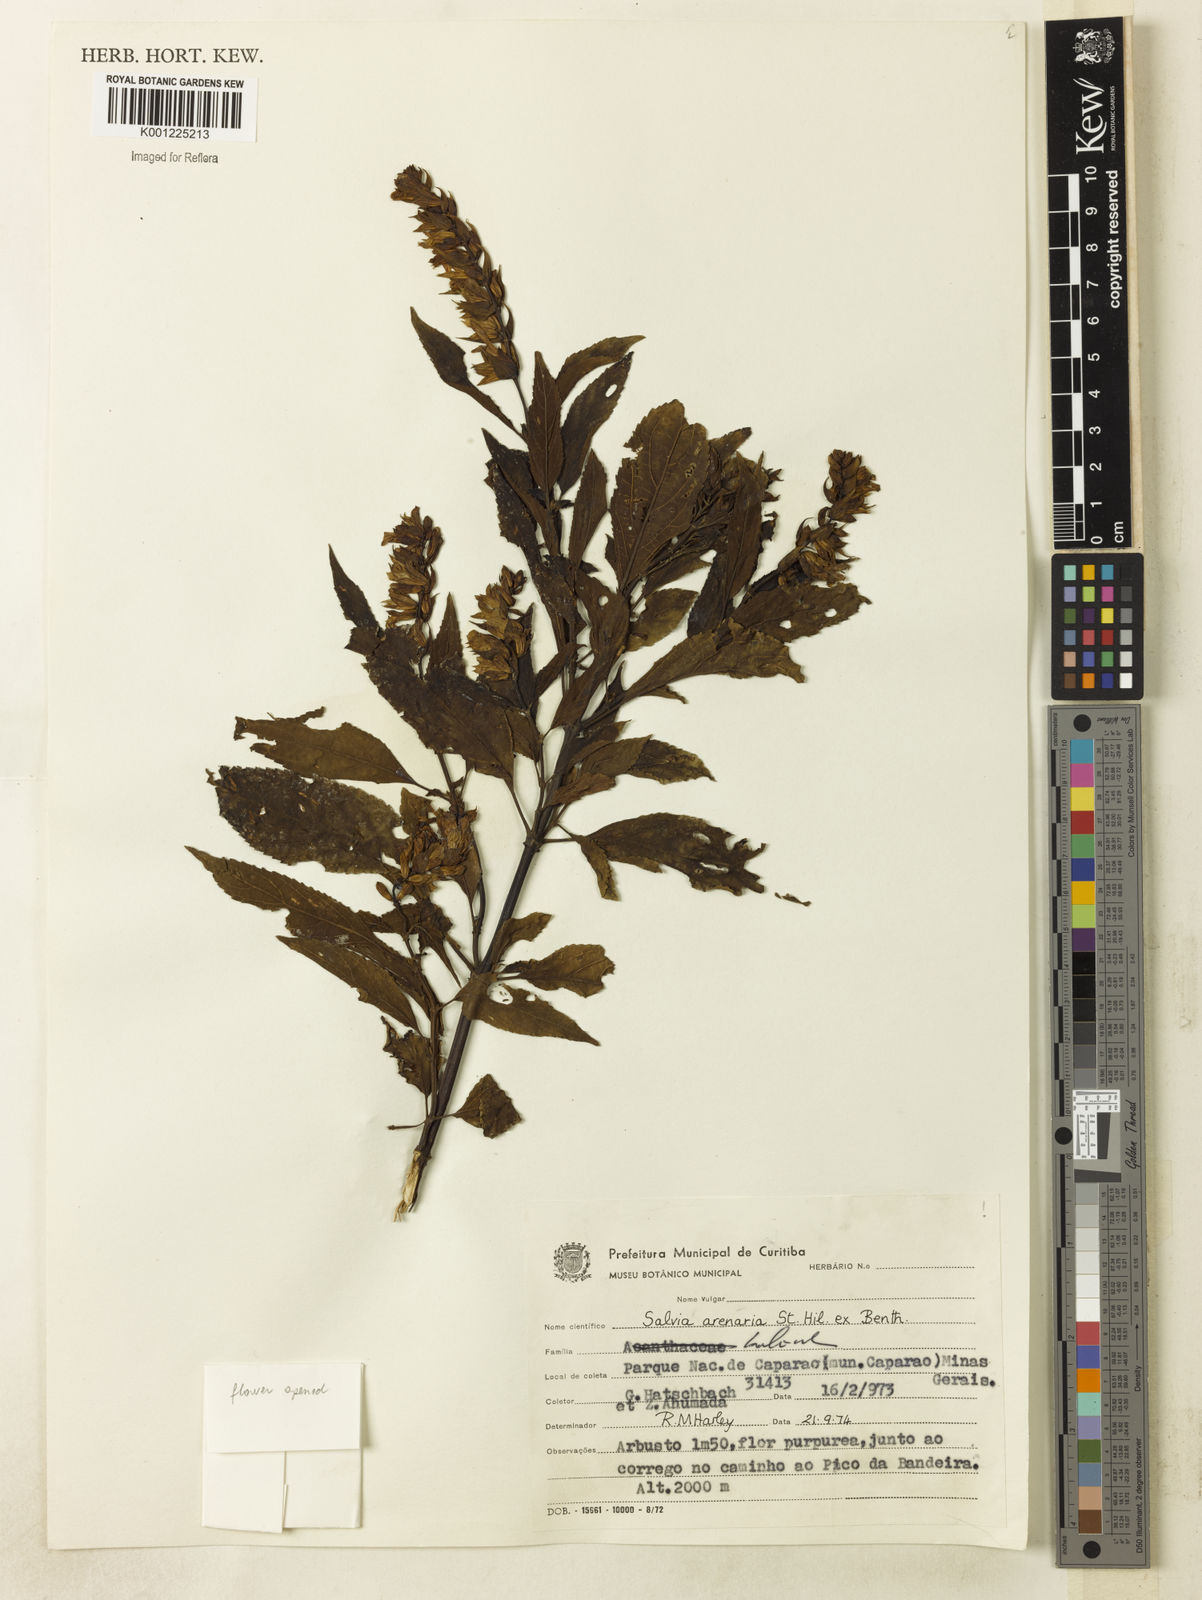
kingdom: Plantae
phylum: Tracheophyta
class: Magnoliopsida
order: Lamiales
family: Lamiaceae
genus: Salvia
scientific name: Salvia arenaria
